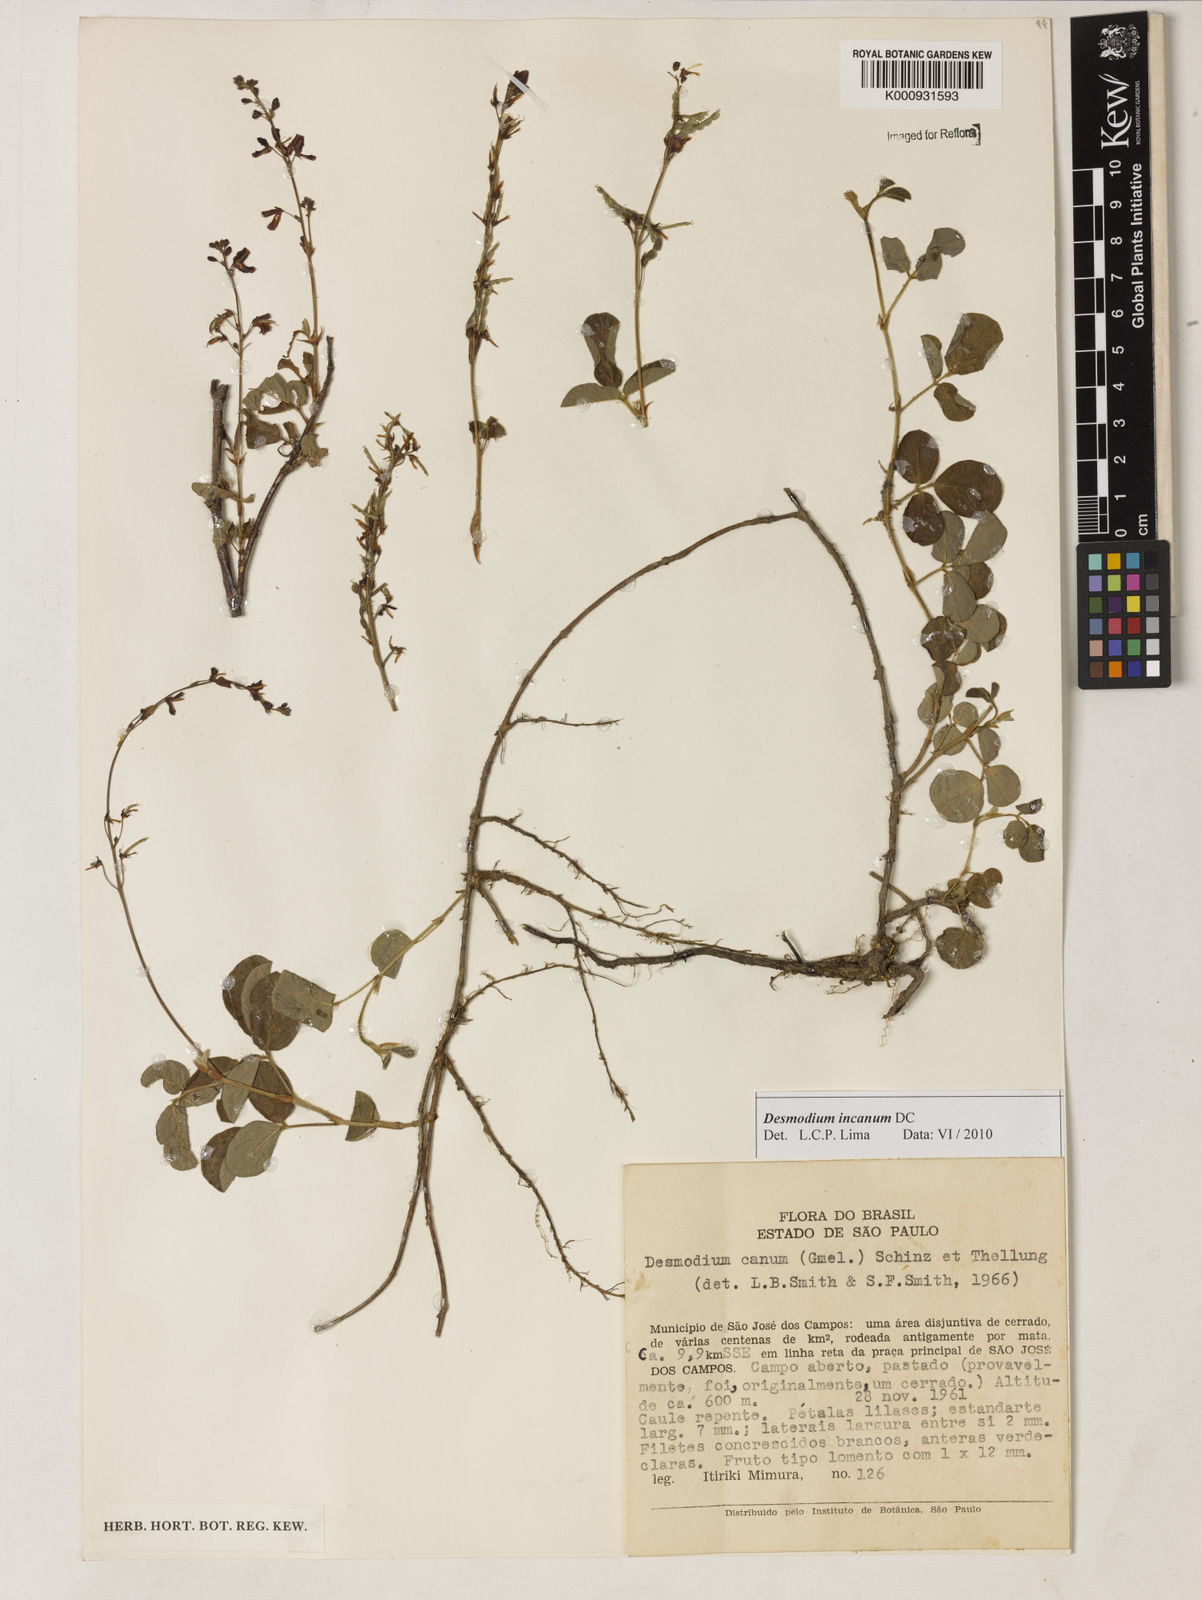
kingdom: Plantae
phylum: Tracheophyta
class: Magnoliopsida
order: Fabales
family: Fabaceae
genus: Desmodium
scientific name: Desmodium incanum
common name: Tickclover
